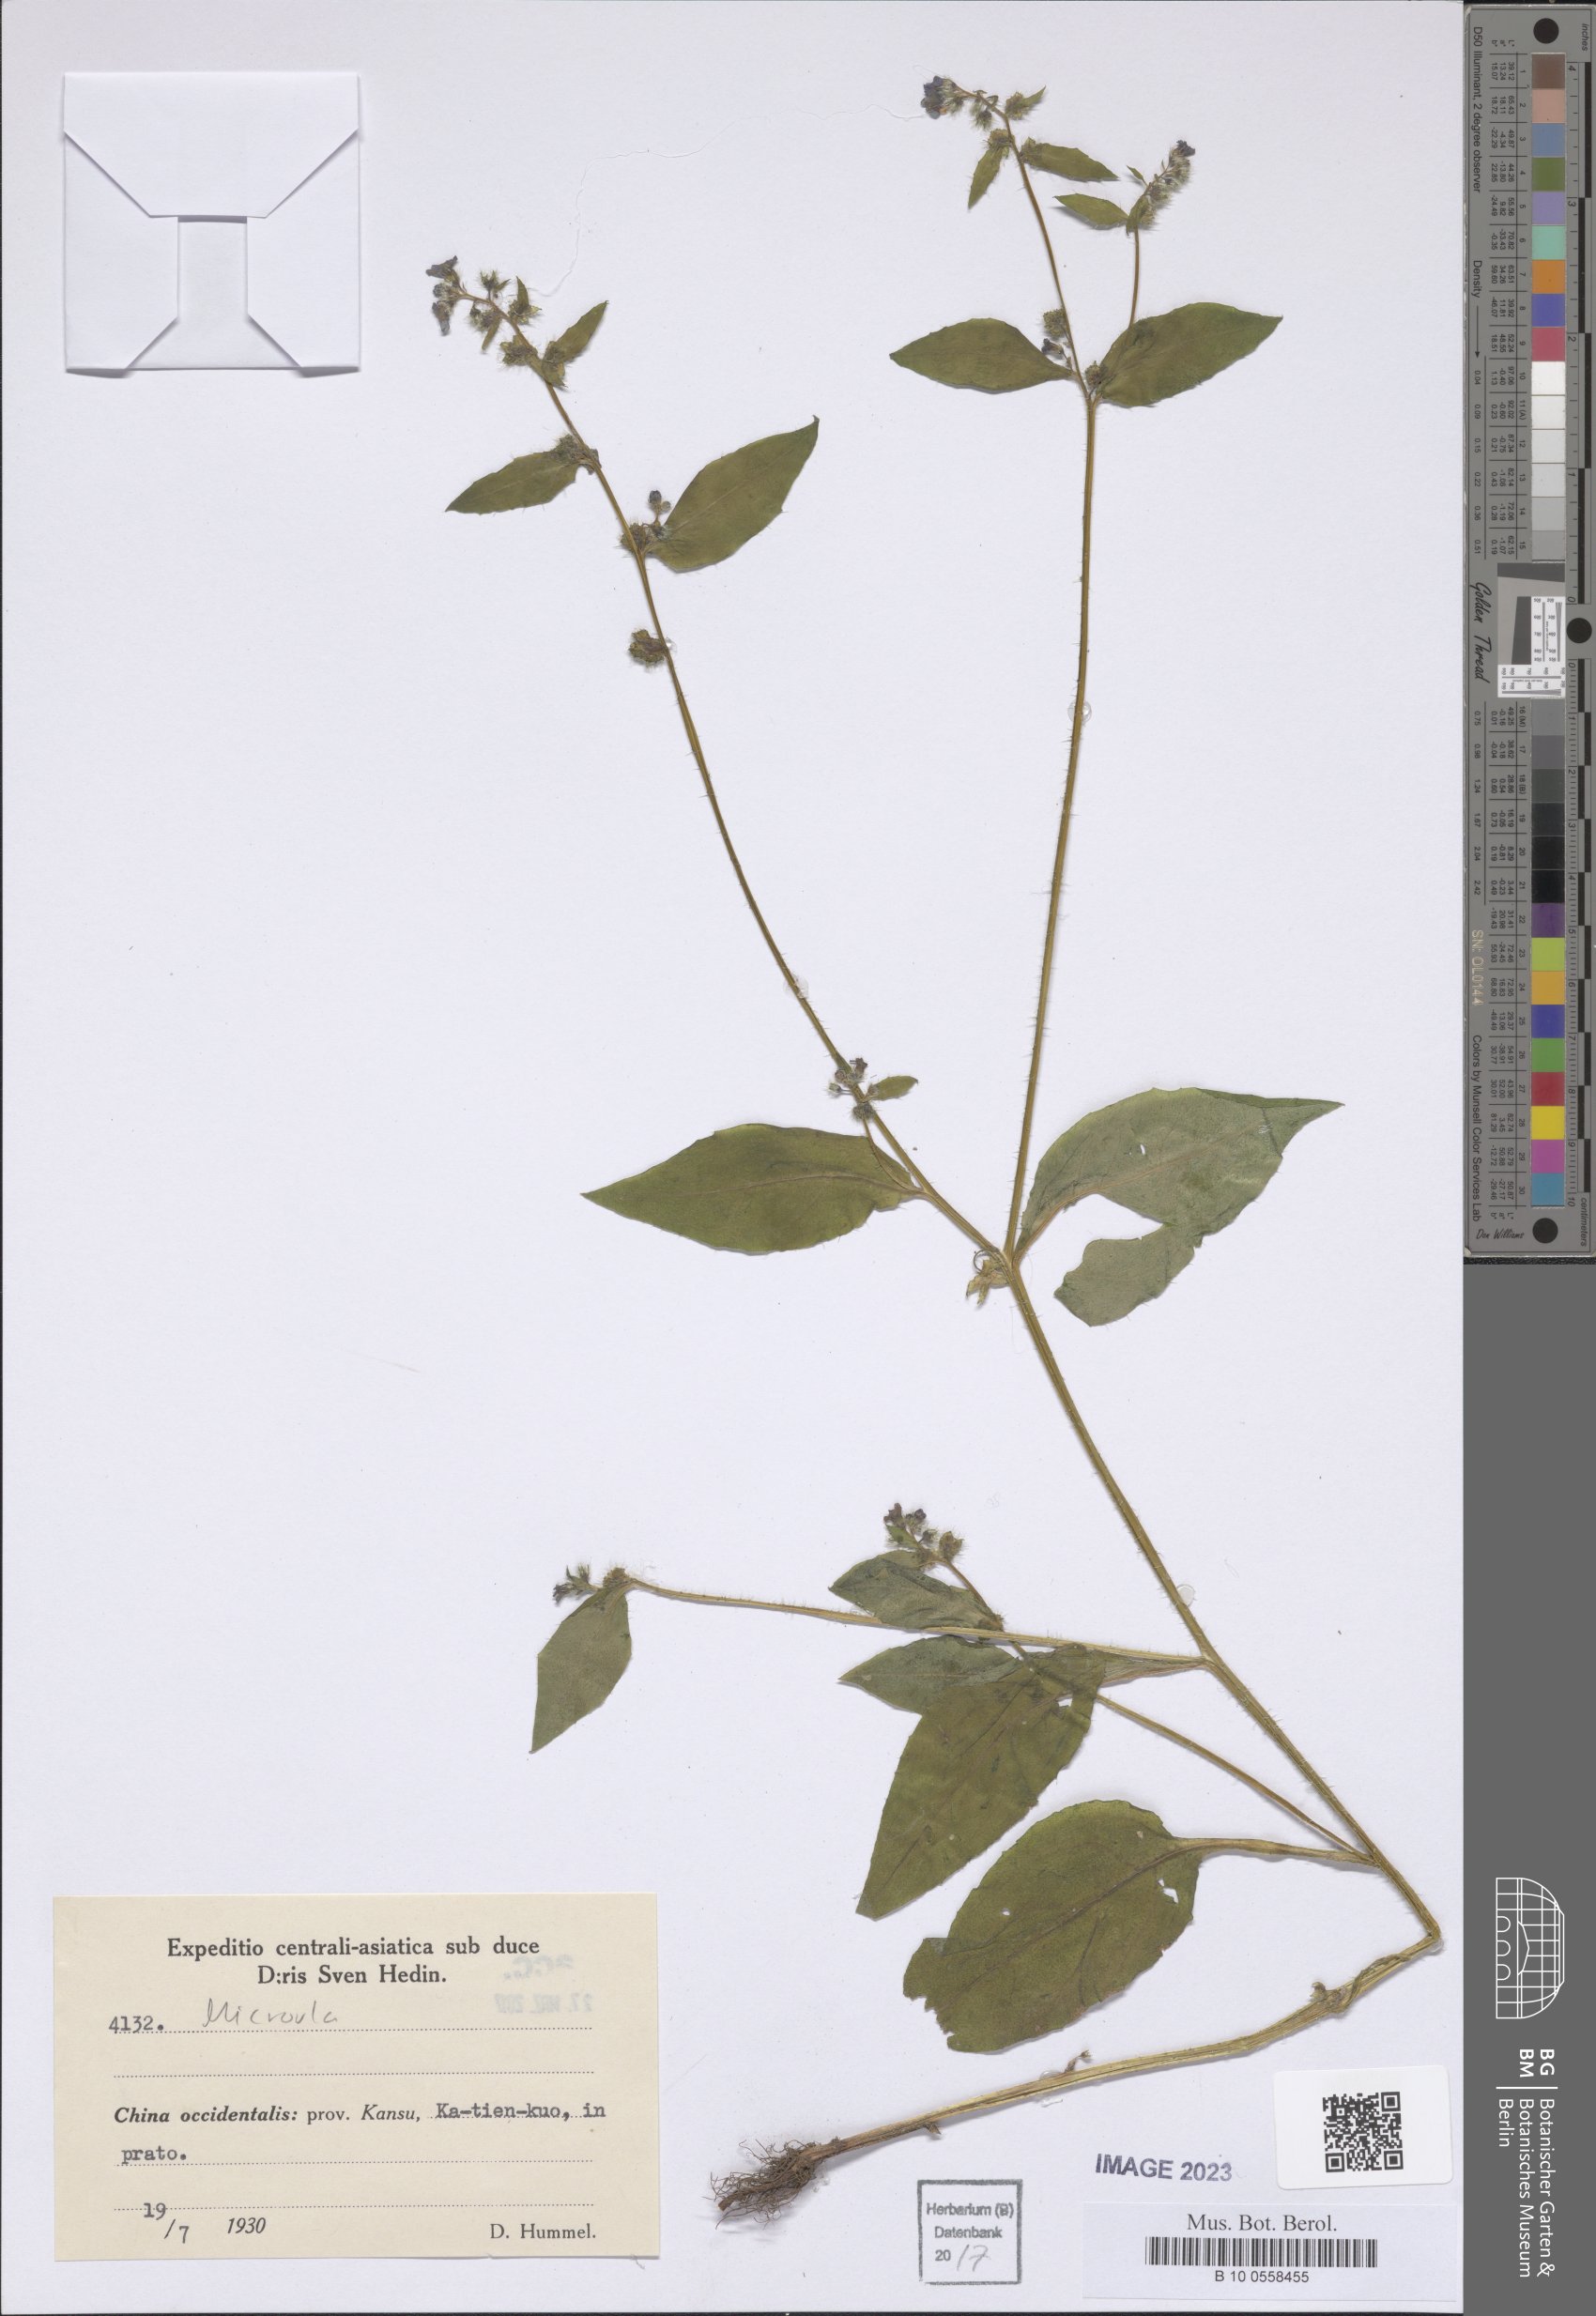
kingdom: Plantae
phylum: Tracheophyta
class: Magnoliopsida
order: Boraginales
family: Boraginaceae
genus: Microula
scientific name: Microula
